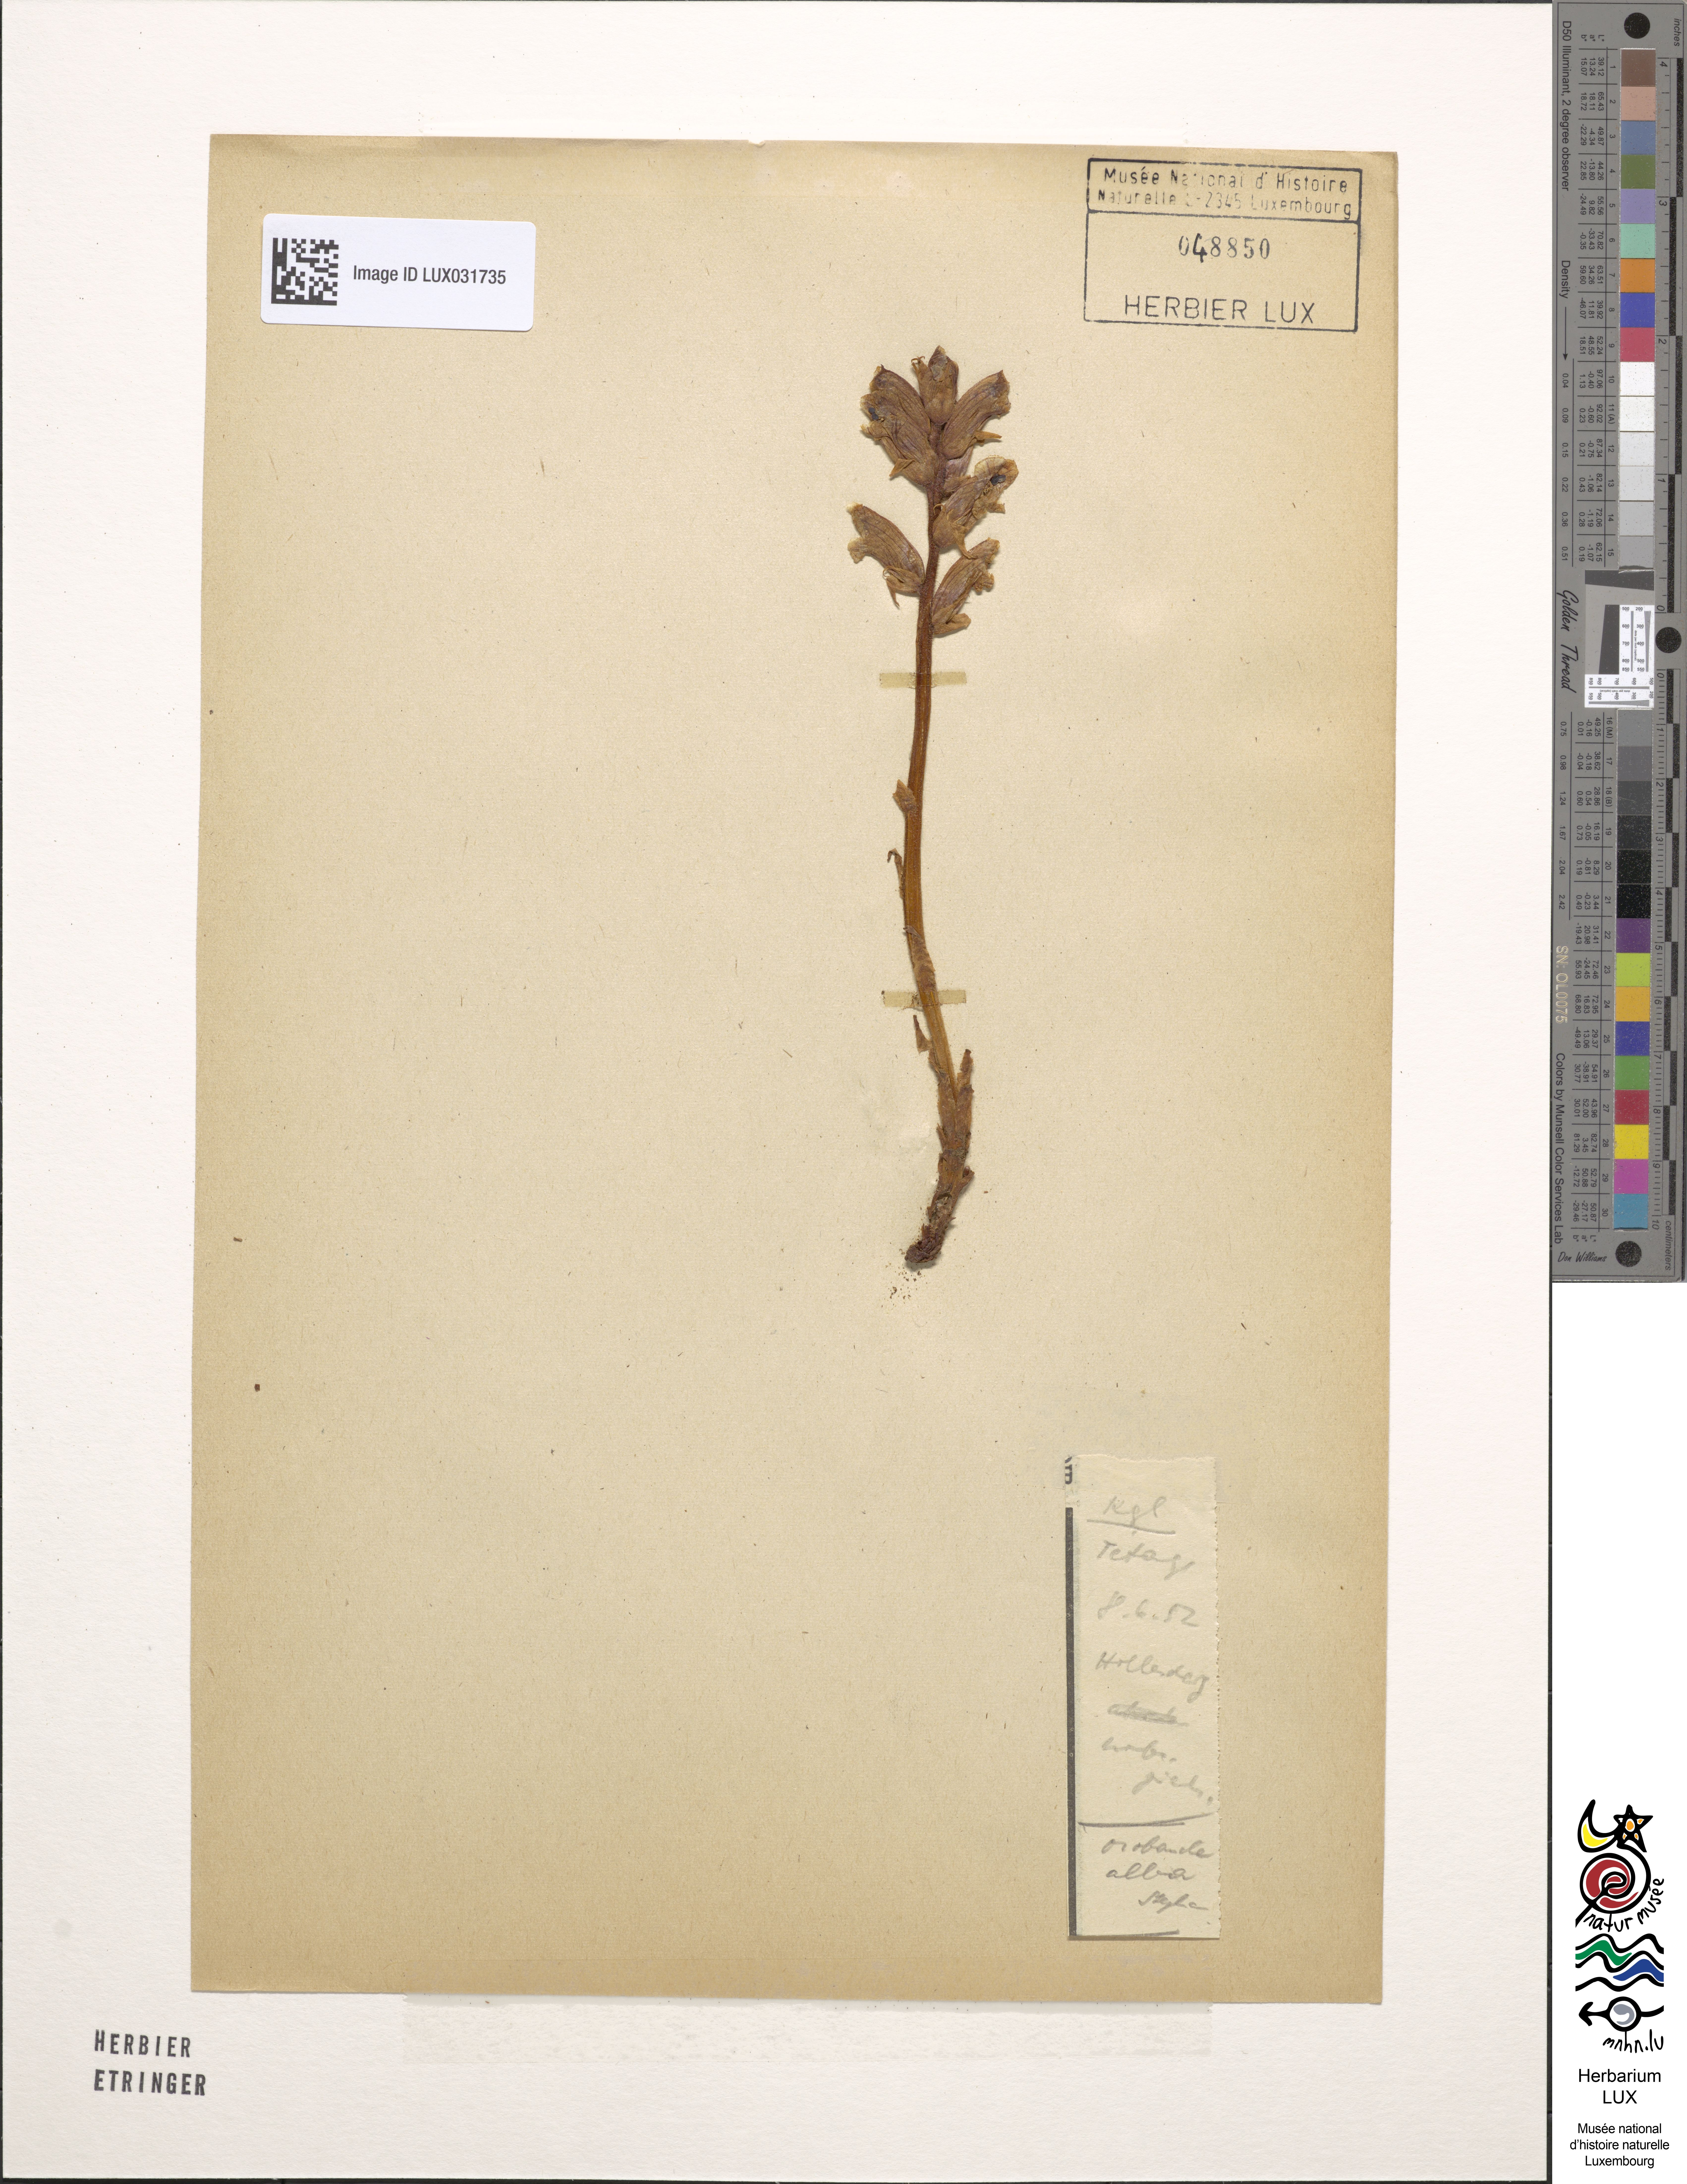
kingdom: Plantae
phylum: Tracheophyta
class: Magnoliopsida
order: Lamiales
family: Orobanchaceae
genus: Orobanche
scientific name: Orobanche alba
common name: Thyme broomrape
